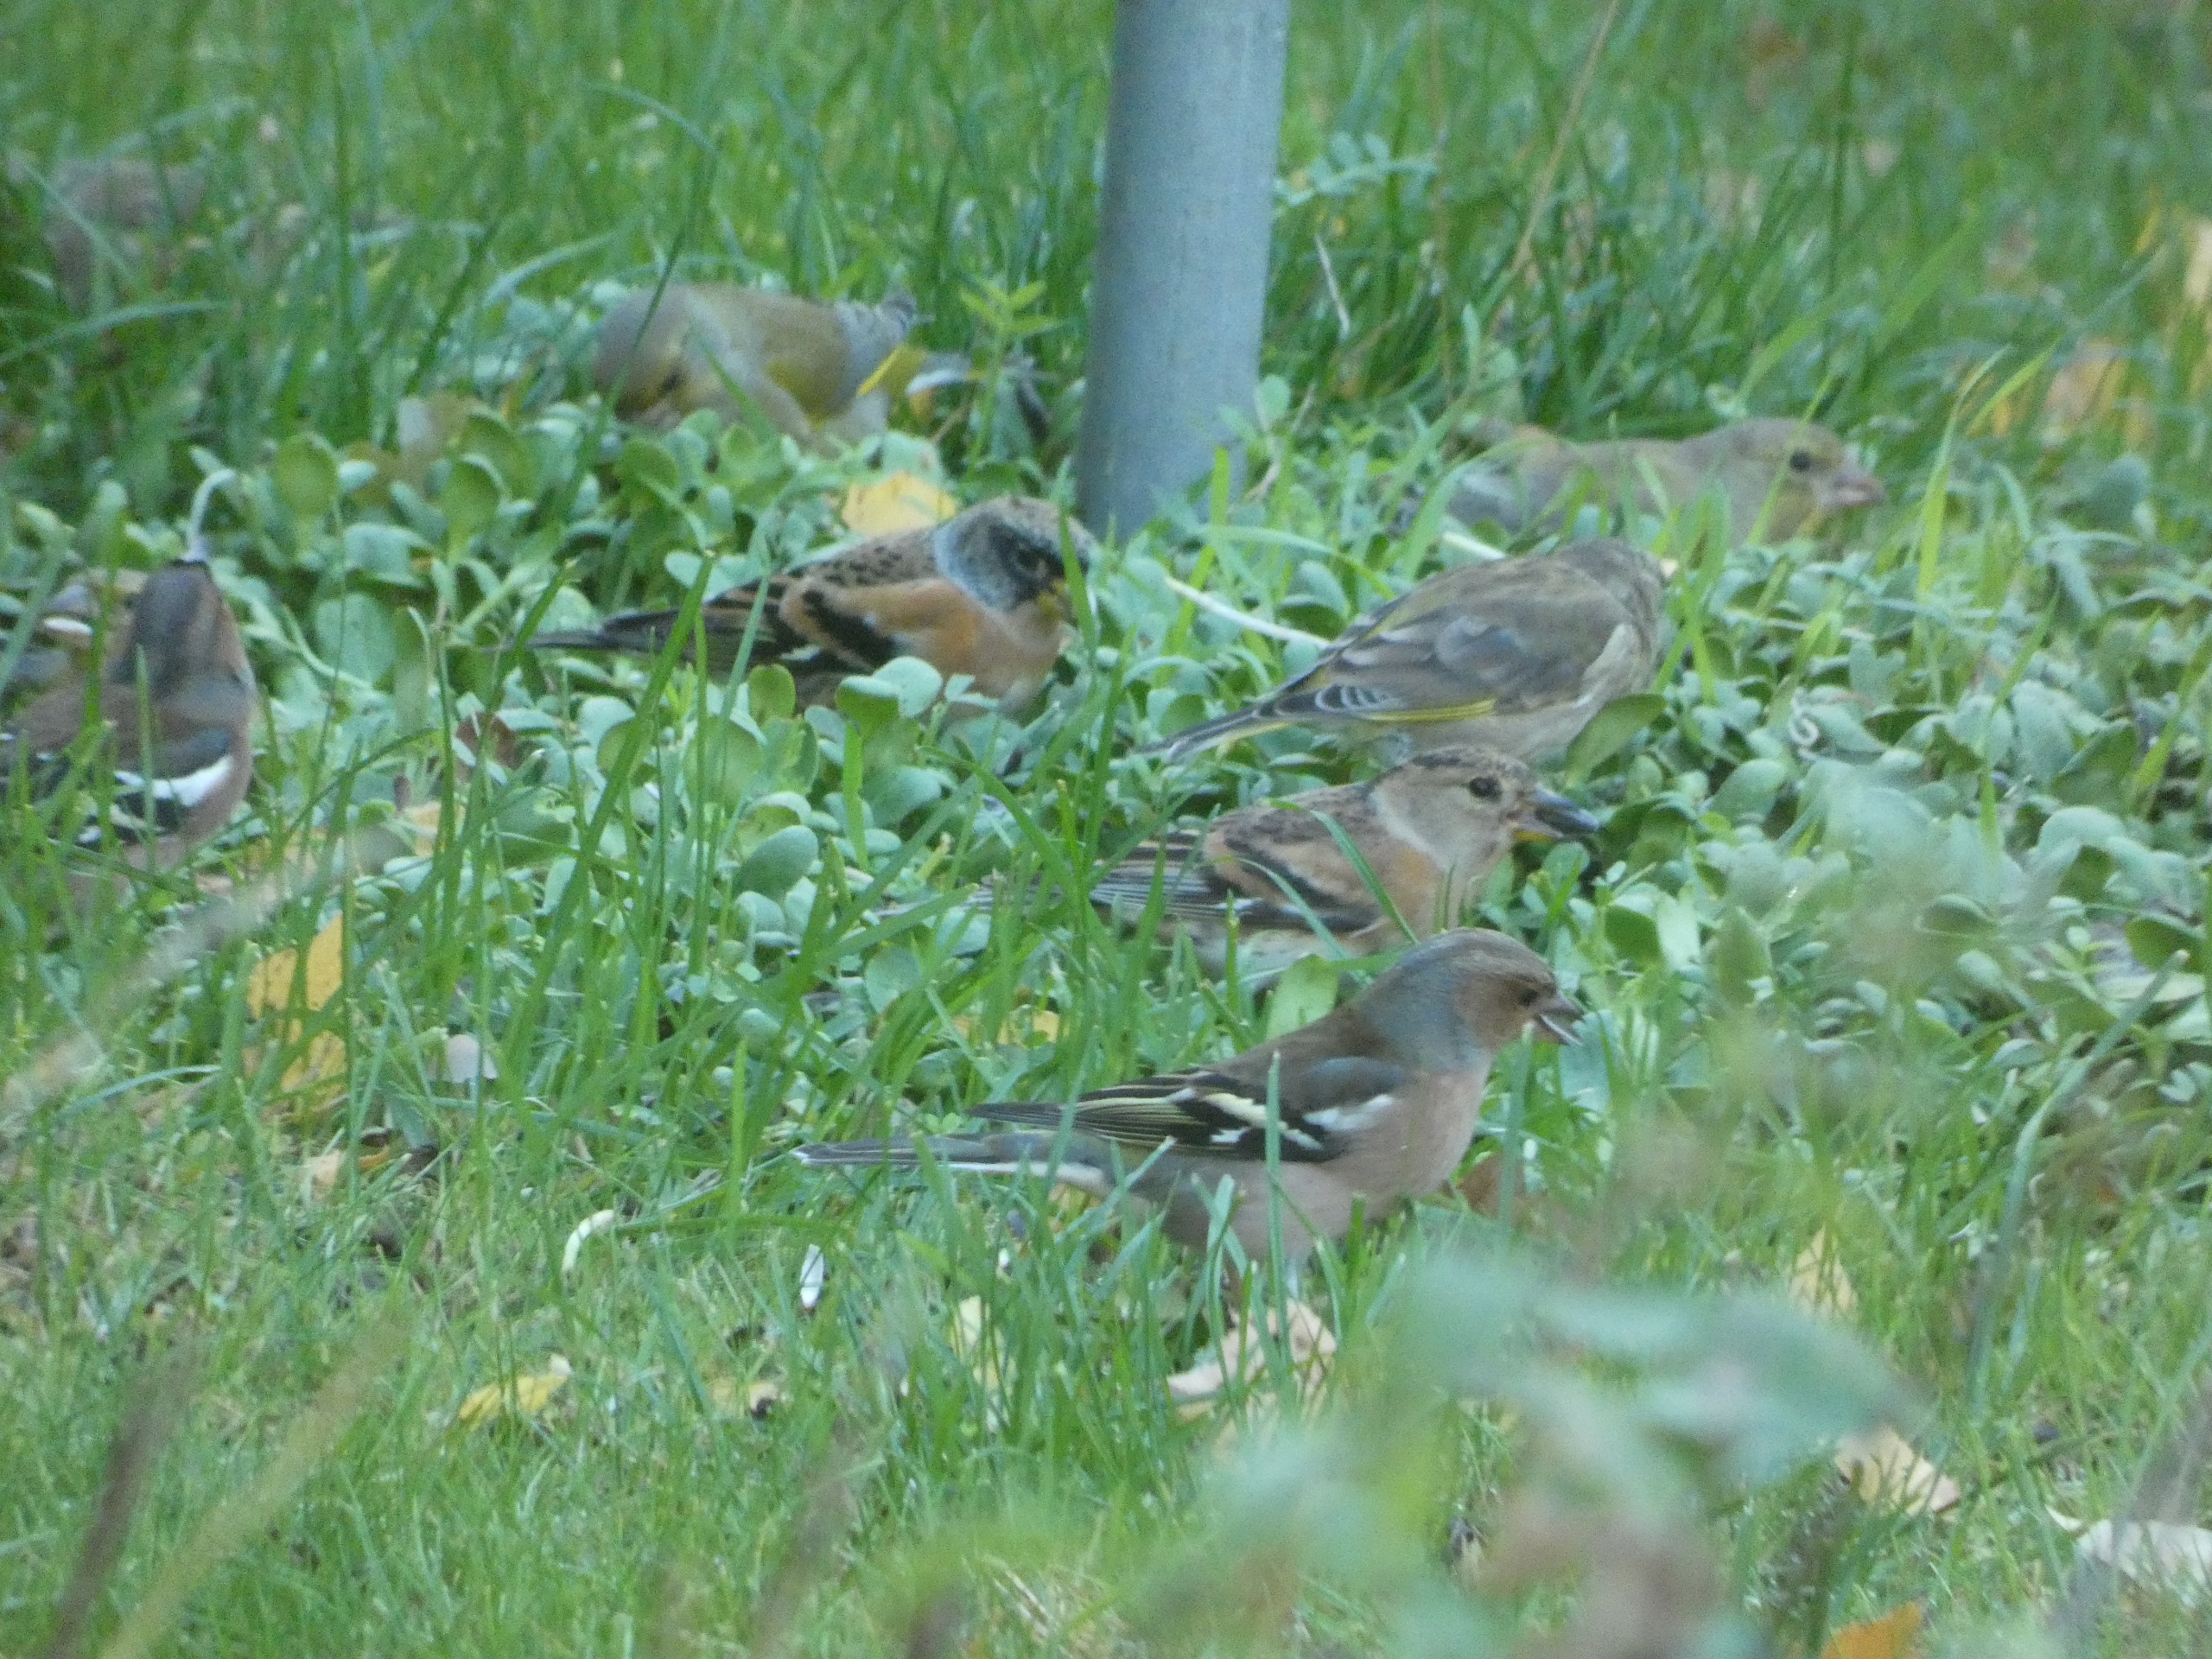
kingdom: Animalia
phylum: Chordata
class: Aves
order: Passeriformes
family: Fringillidae
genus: Fringilla
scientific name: Fringilla coelebs
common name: Bogfinke
